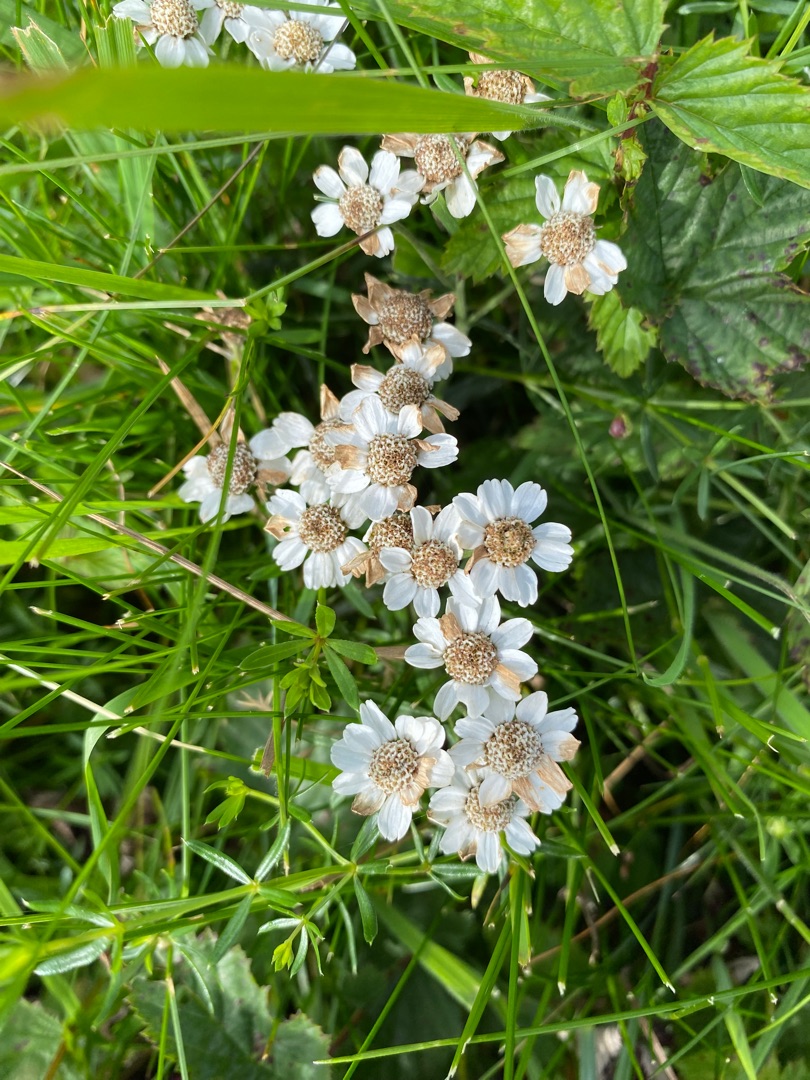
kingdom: Plantae
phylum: Tracheophyta
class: Magnoliopsida
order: Asterales
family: Asteraceae
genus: Achillea
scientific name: Achillea ptarmica
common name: Nyse-røllike
